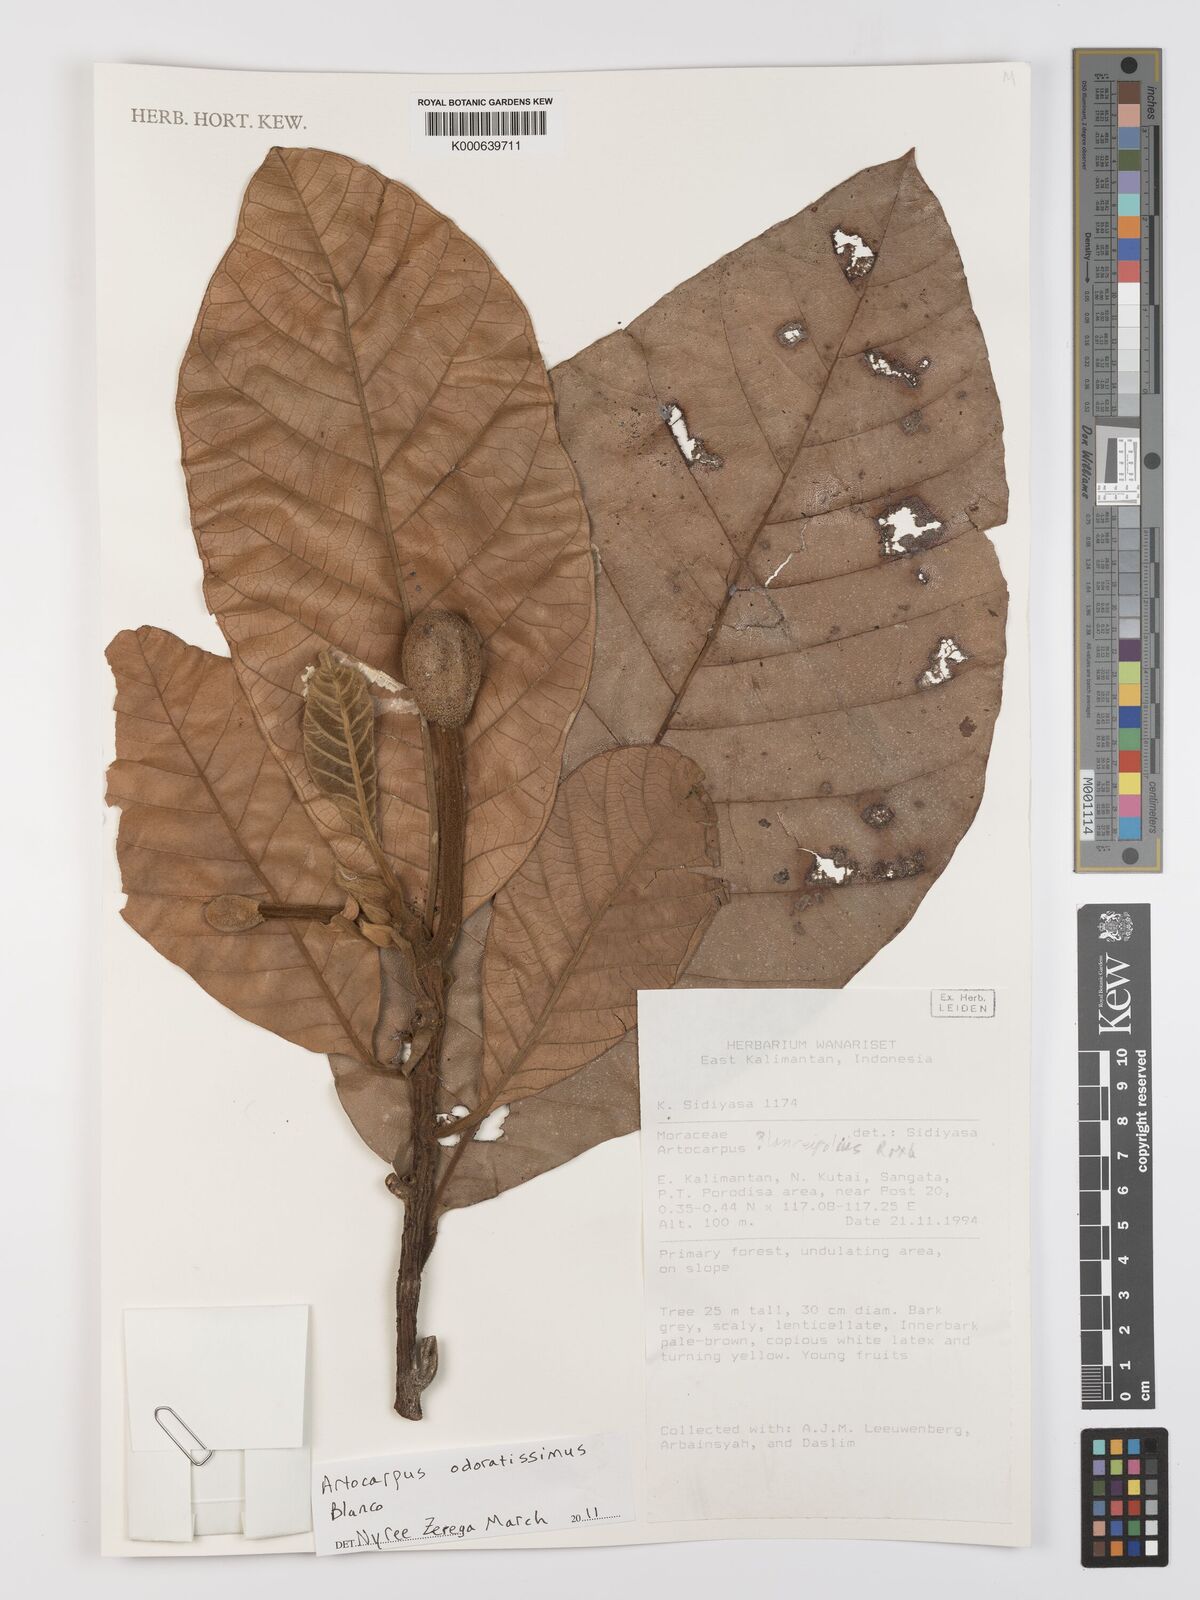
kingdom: Plantae
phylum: Tracheophyta
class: Magnoliopsida
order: Rosales
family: Moraceae
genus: Artocarpus
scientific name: Artocarpus odoratissimus
